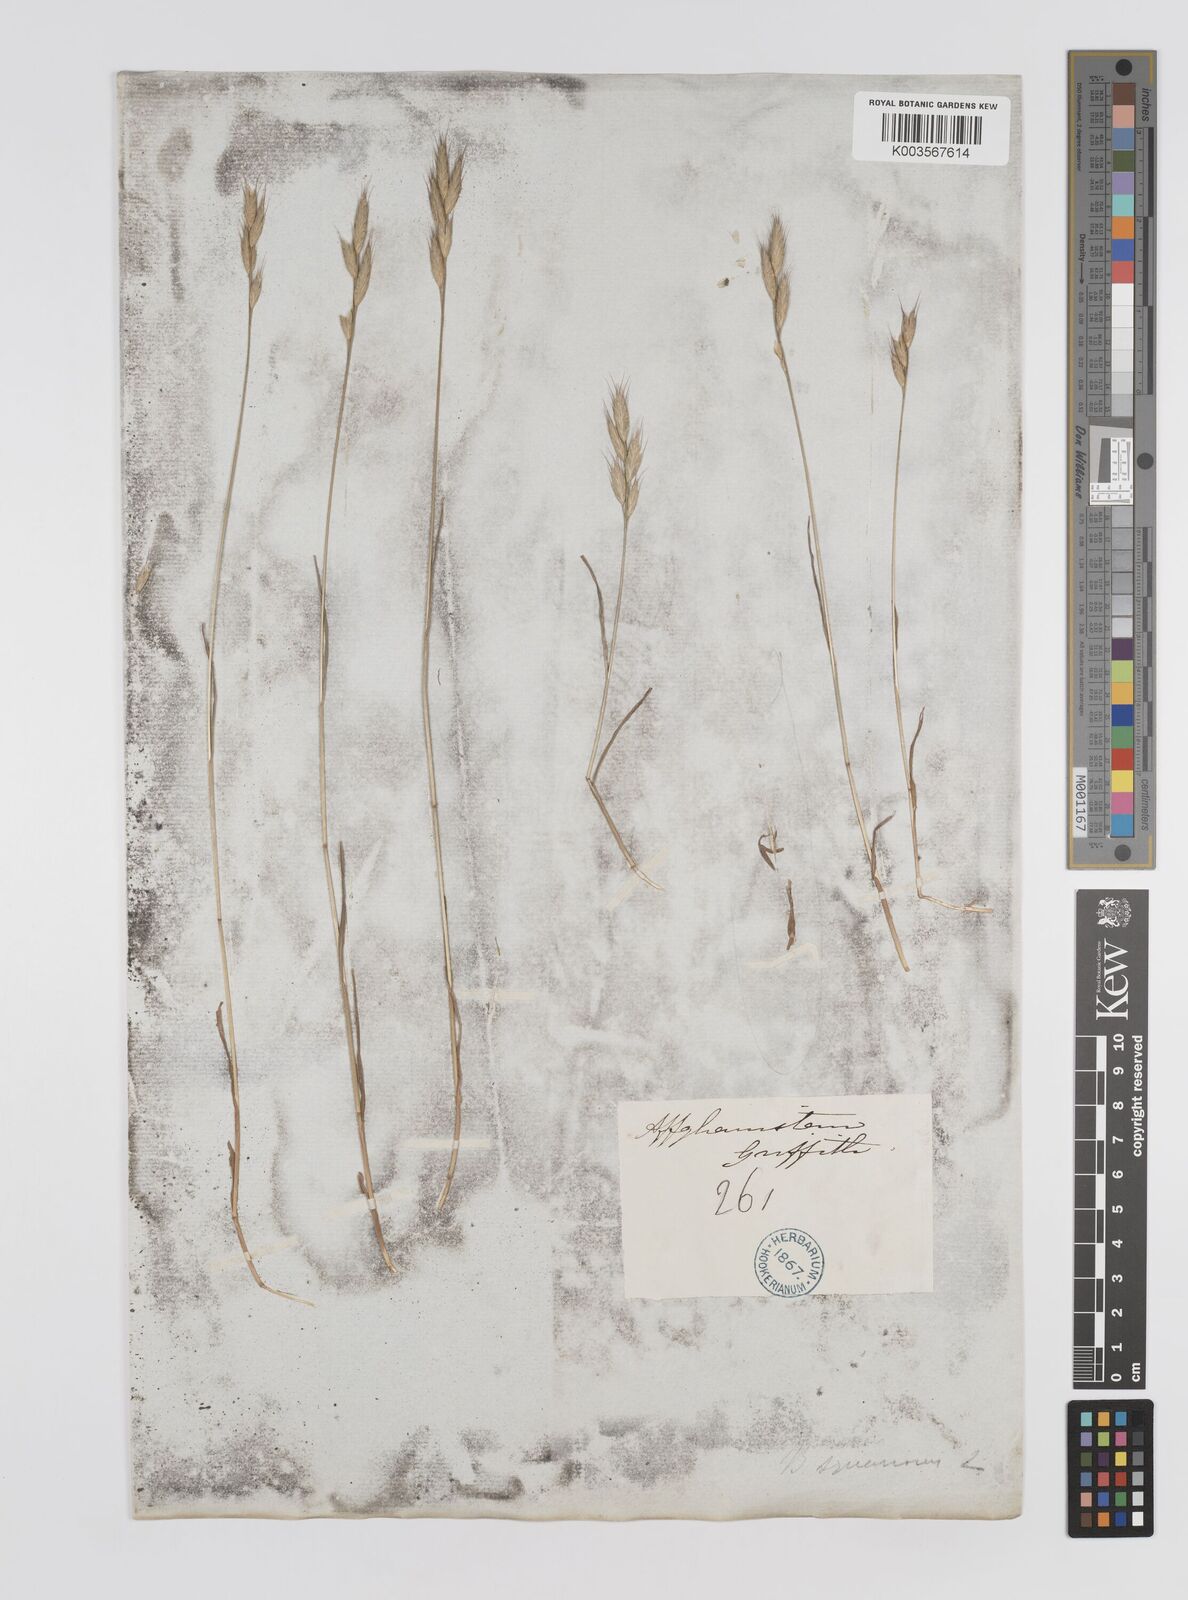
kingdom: Plantae
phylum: Tracheophyta
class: Liliopsida
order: Poales
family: Poaceae
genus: Bromus
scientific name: Bromus brachystachys
